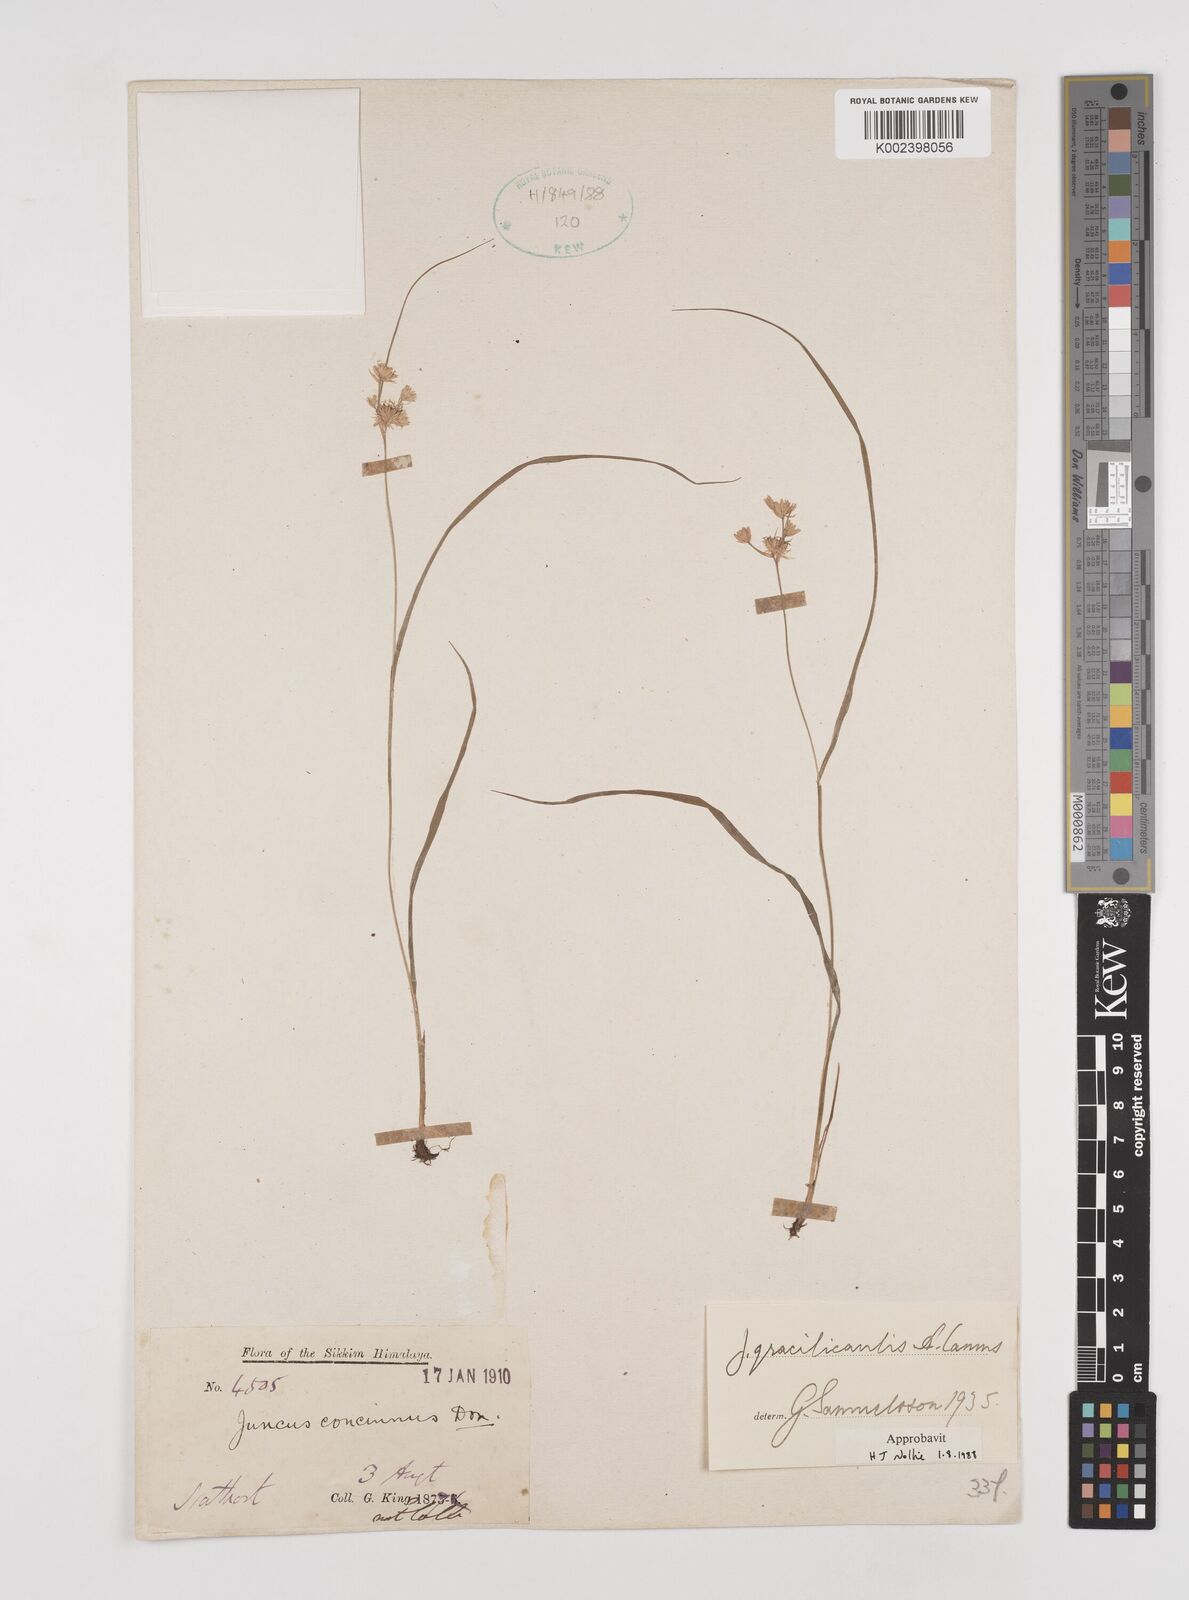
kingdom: Plantae
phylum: Tracheophyta
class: Liliopsida
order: Poales
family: Juncaceae
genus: Juncus
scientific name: Juncus gracilicaulis
